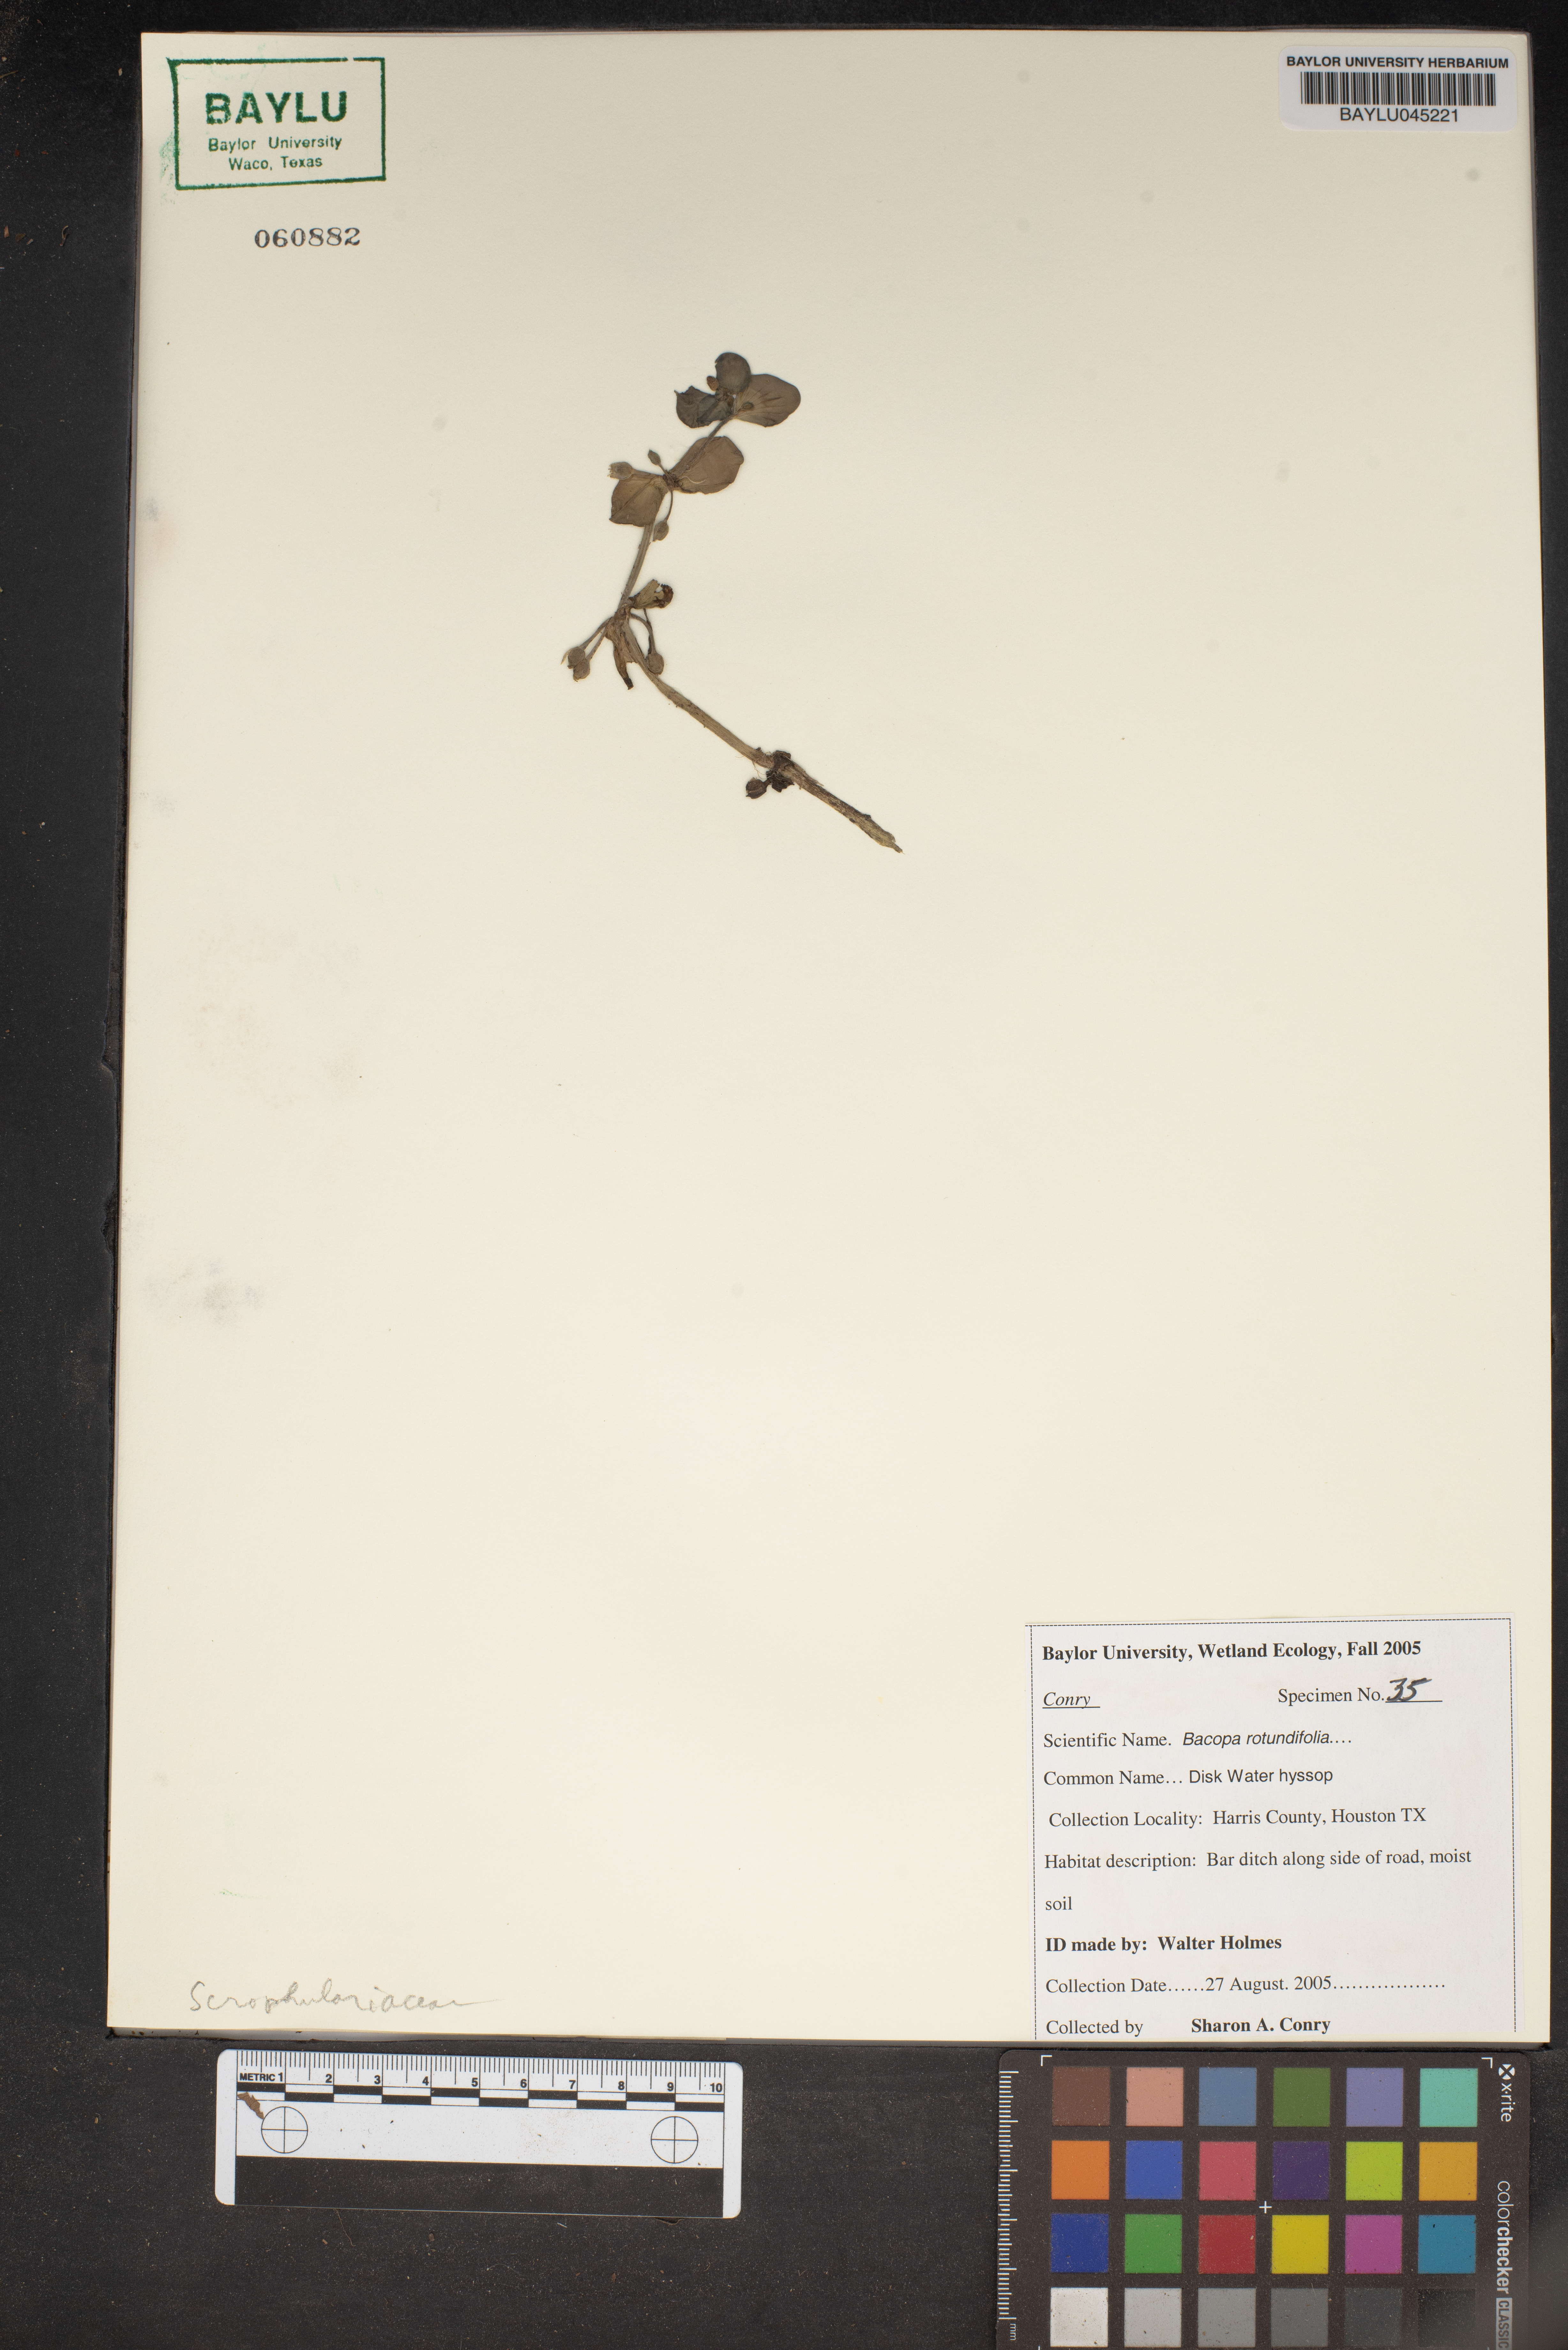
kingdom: Plantae
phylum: Tracheophyta
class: Magnoliopsida
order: Lamiales
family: Plantaginaceae
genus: Bacopa
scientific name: Bacopa rotundifolia
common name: Disc water hyssop
